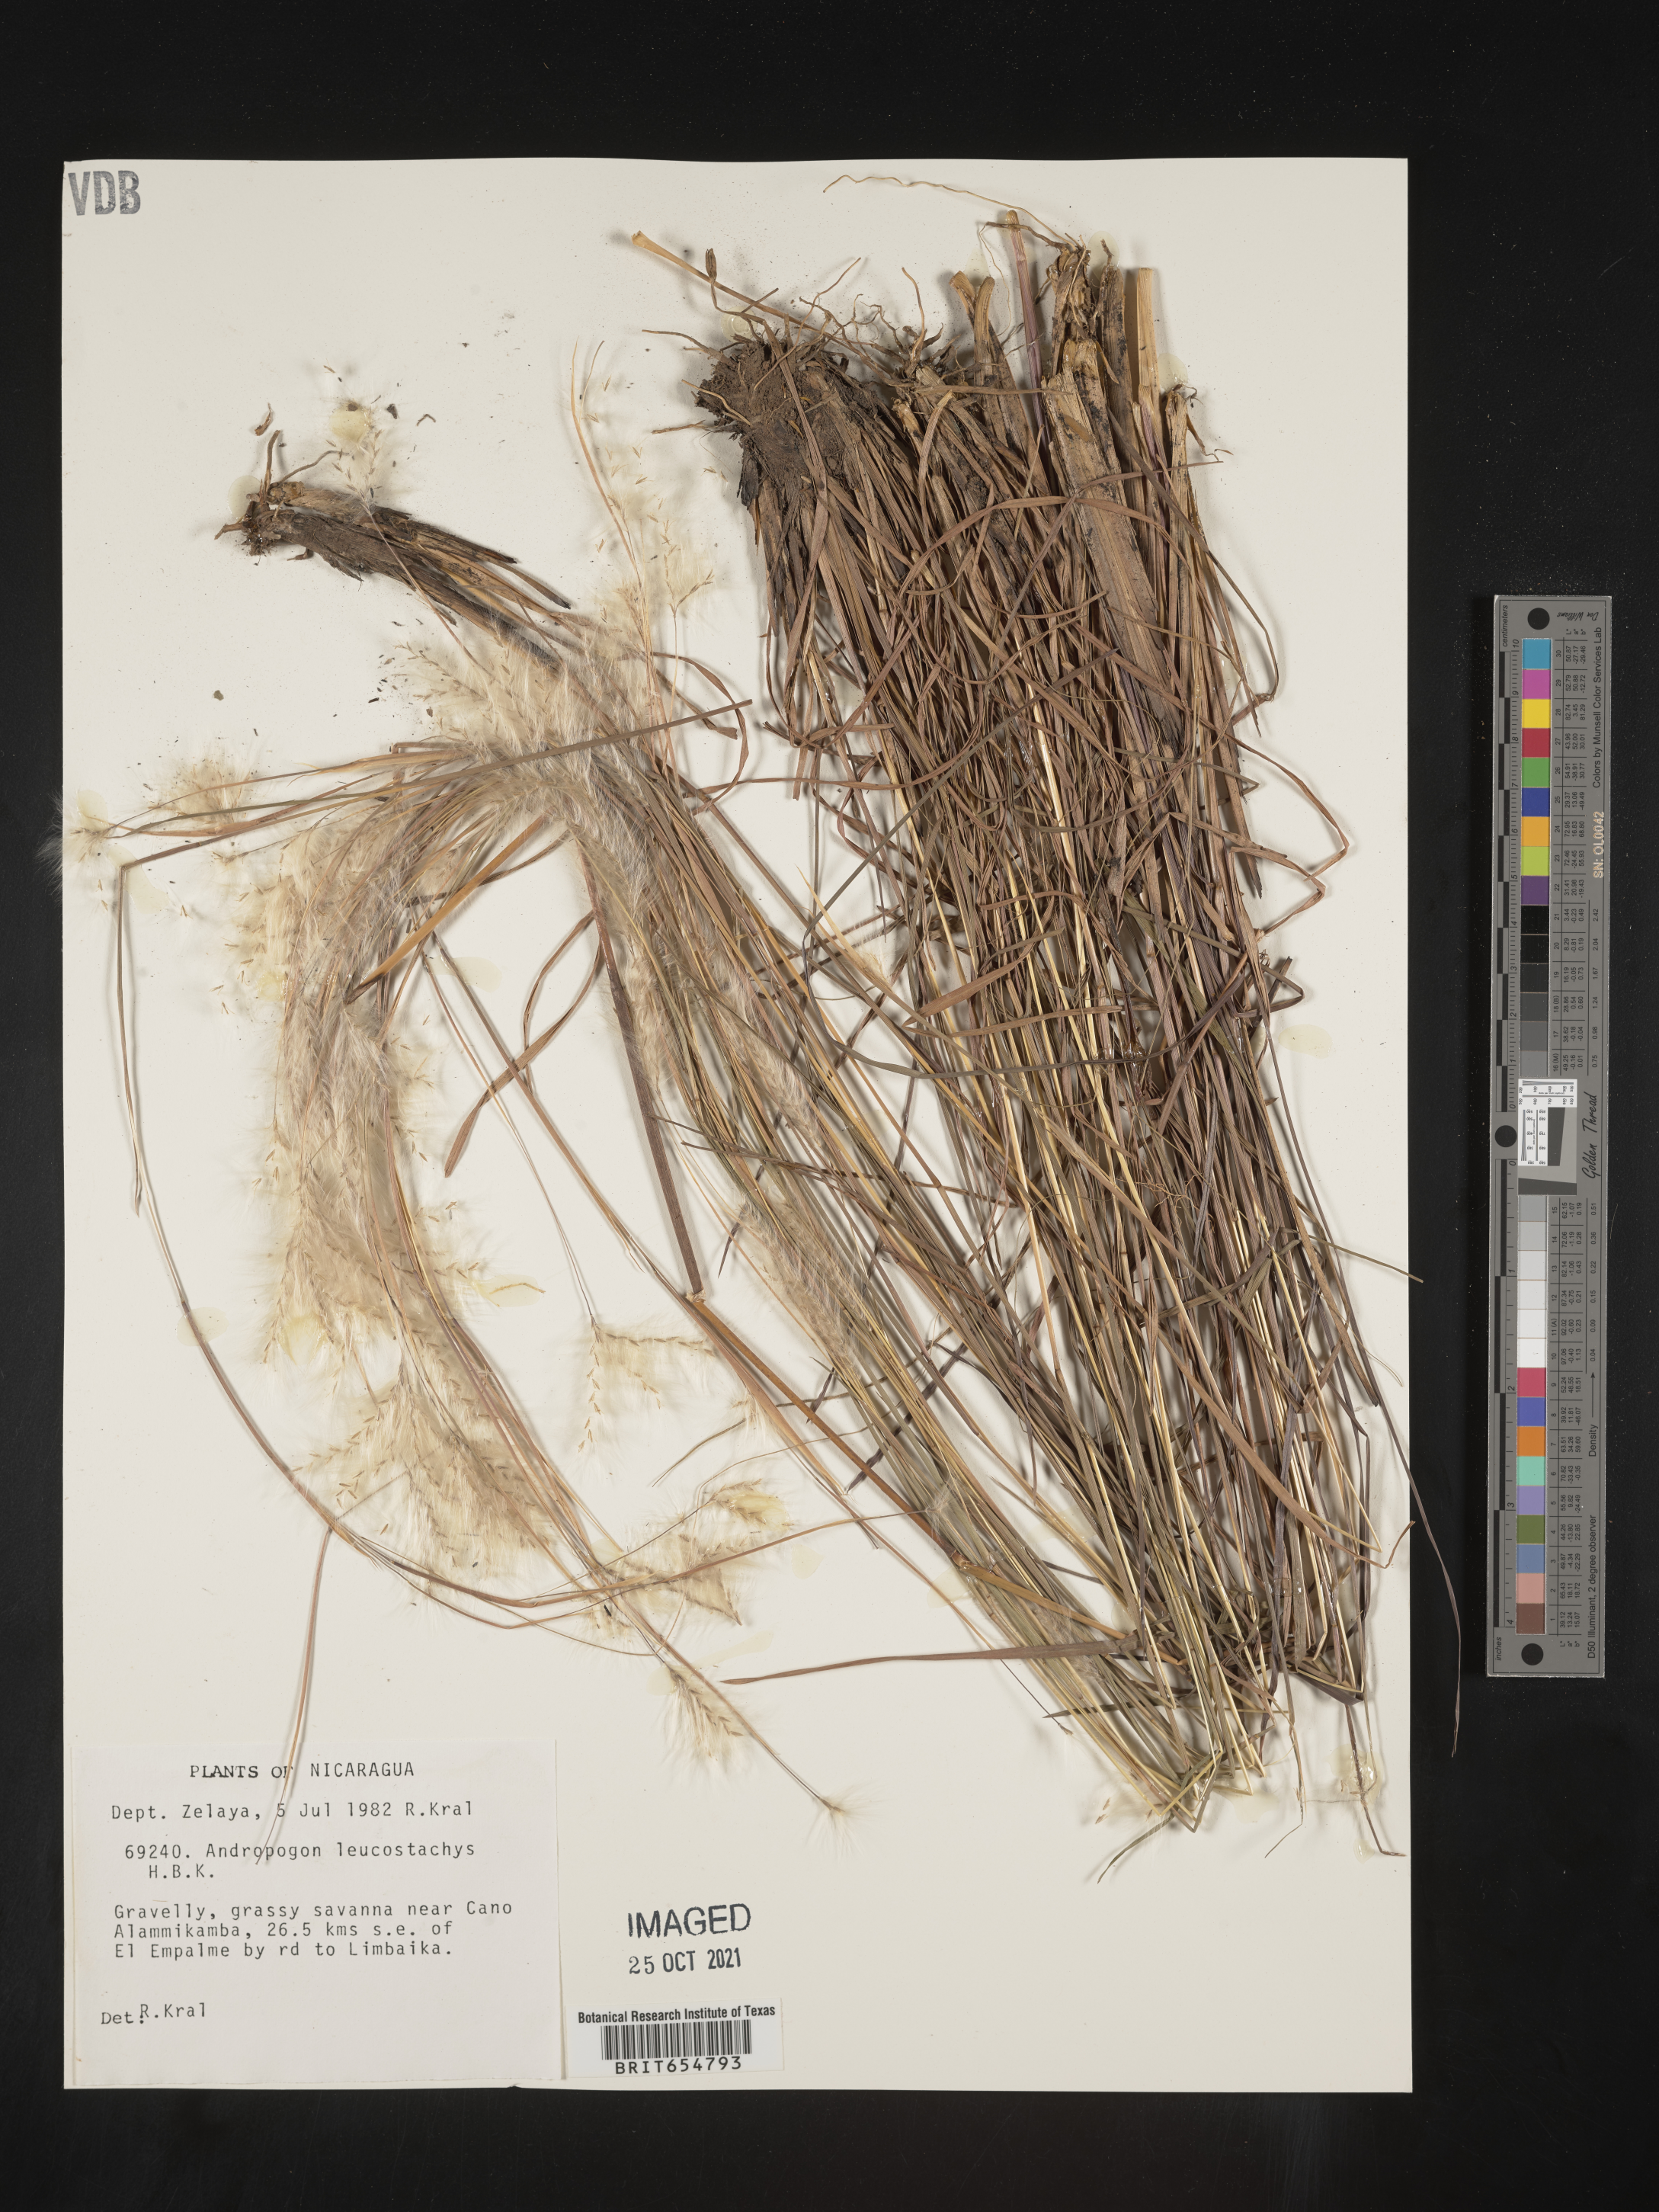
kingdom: Plantae
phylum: Tracheophyta
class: Liliopsida
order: Poales
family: Poaceae
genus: Andropogon
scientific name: Andropogon
